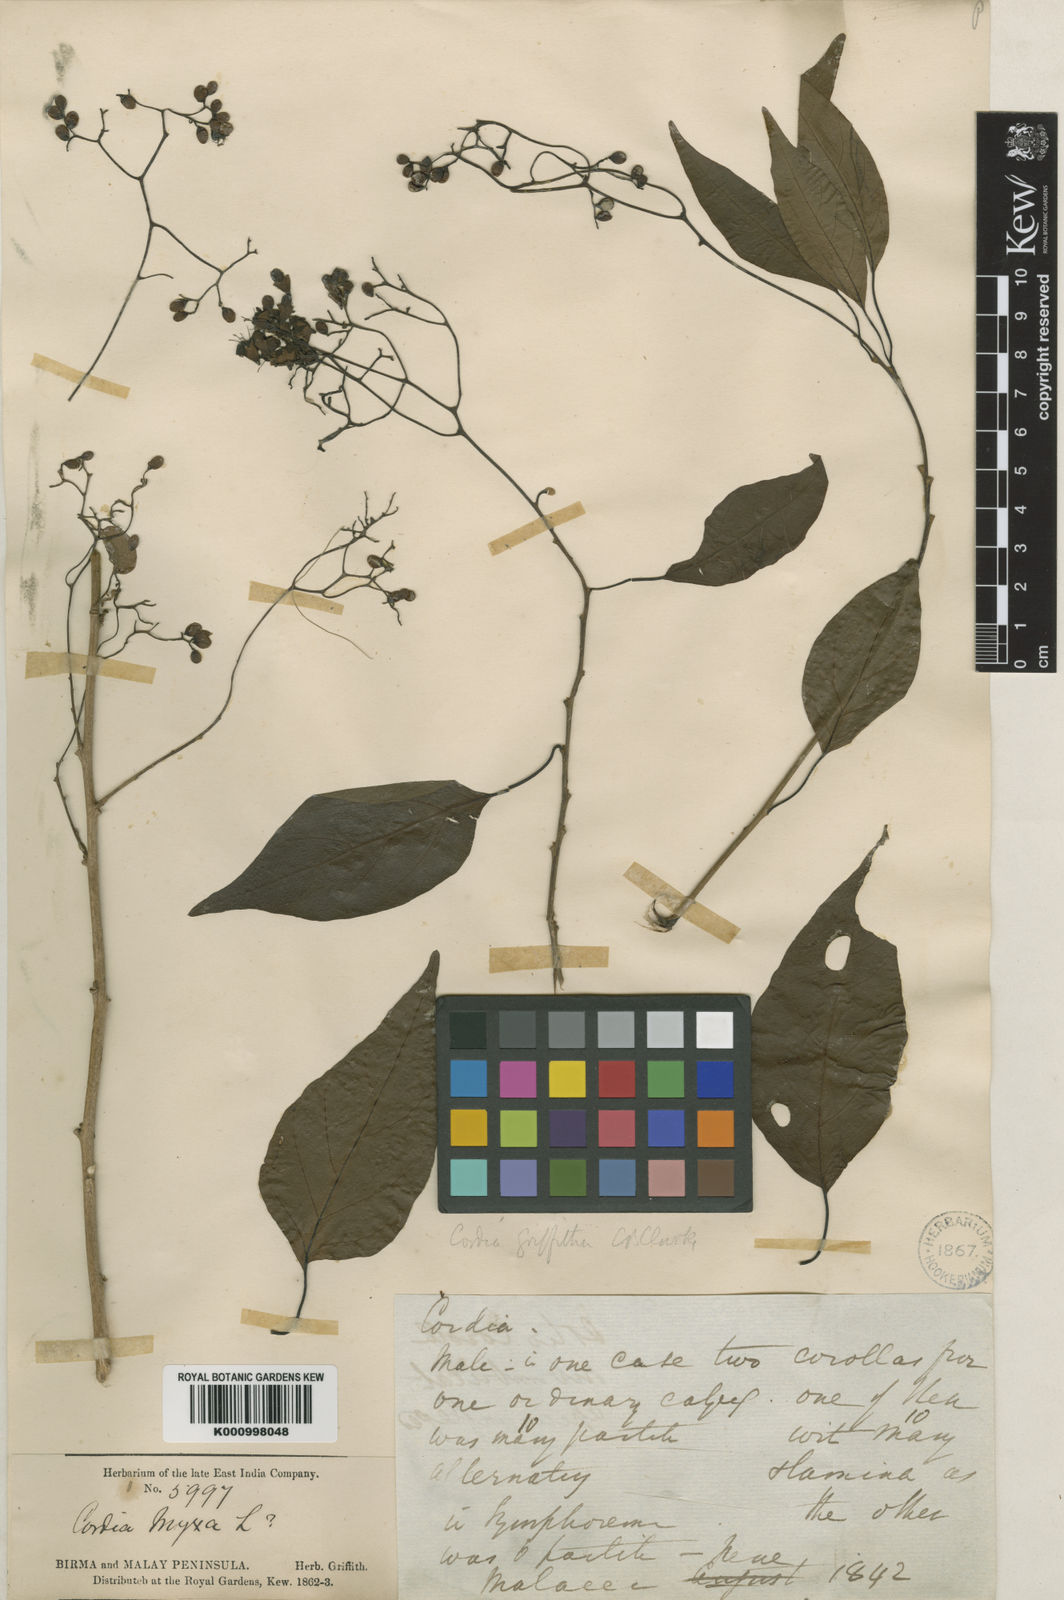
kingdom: Plantae
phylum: Tracheophyta
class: Magnoliopsida
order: Boraginales
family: Cordiaceae
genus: Cordia
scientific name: Cordia dichotoma
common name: Fragrant manjack
